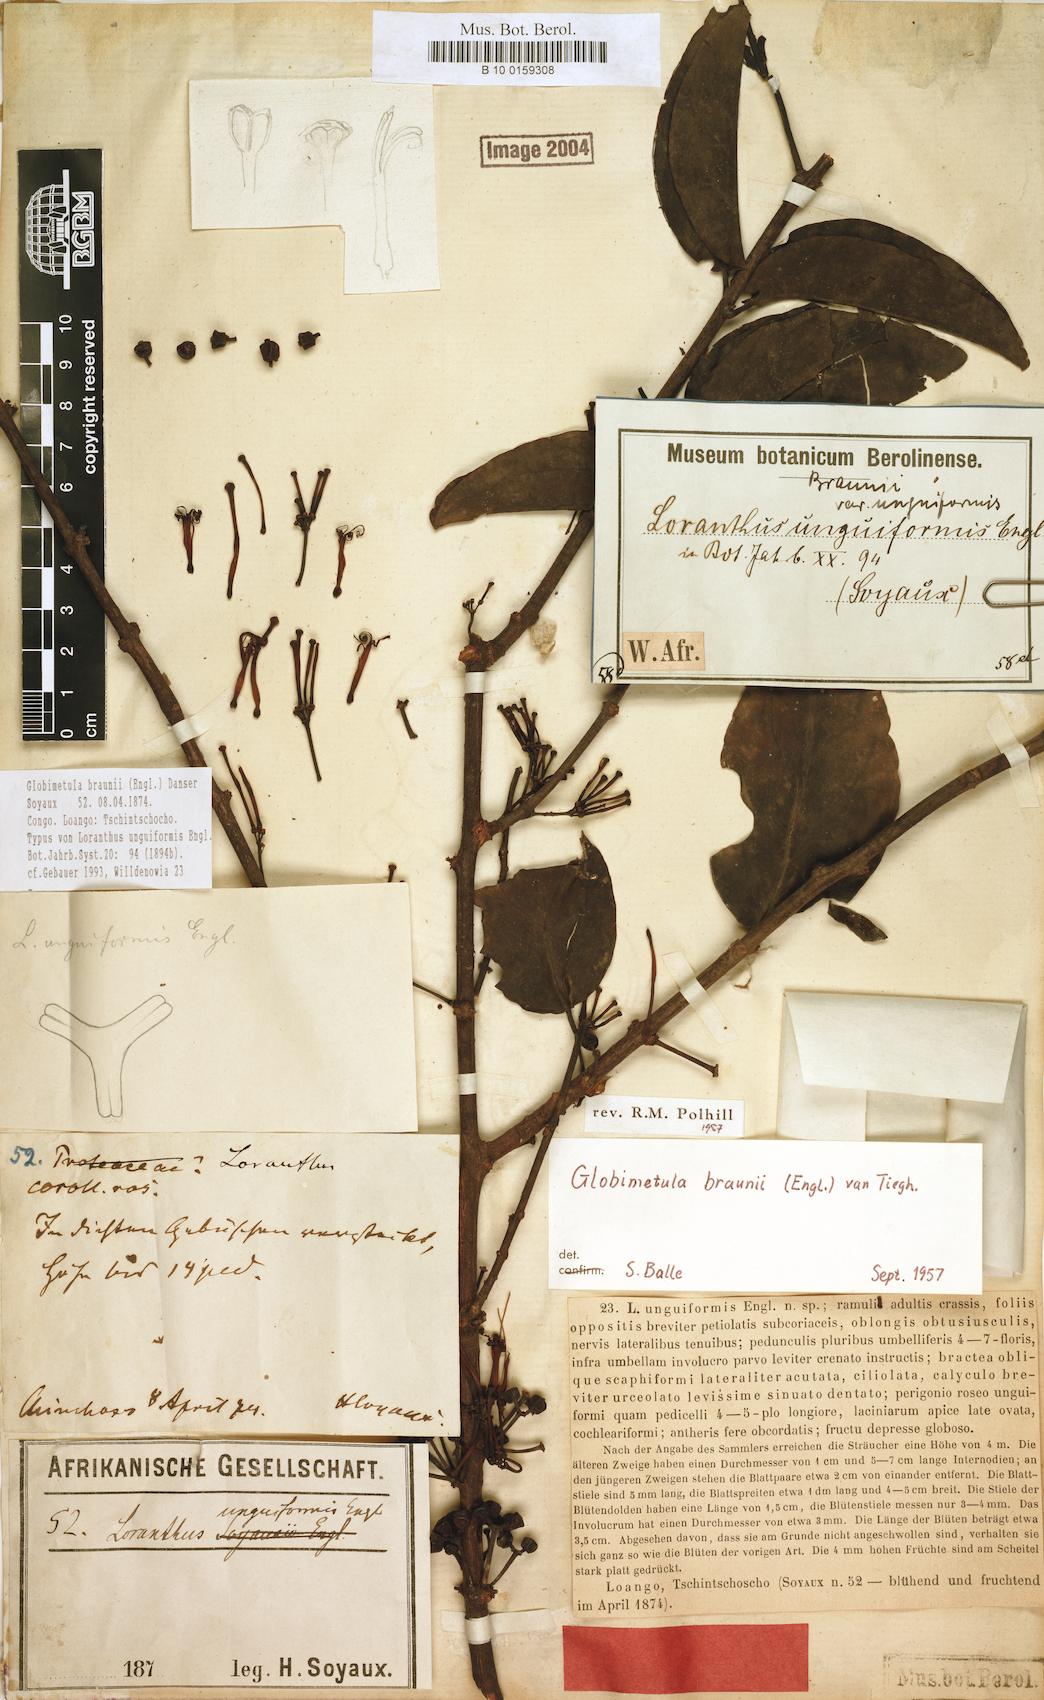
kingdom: Plantae
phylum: Tracheophyta
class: Magnoliopsida
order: Santalales
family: Loranthaceae
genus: Globimetula
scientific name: Globimetula braunii
